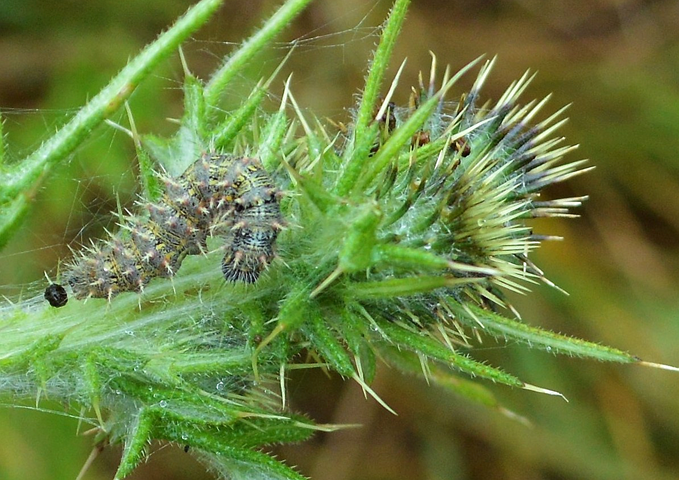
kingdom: Animalia
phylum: Arthropoda
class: Insecta
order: Lepidoptera
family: Nymphalidae
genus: Vanessa
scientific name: Vanessa cardui
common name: Painted Lady
